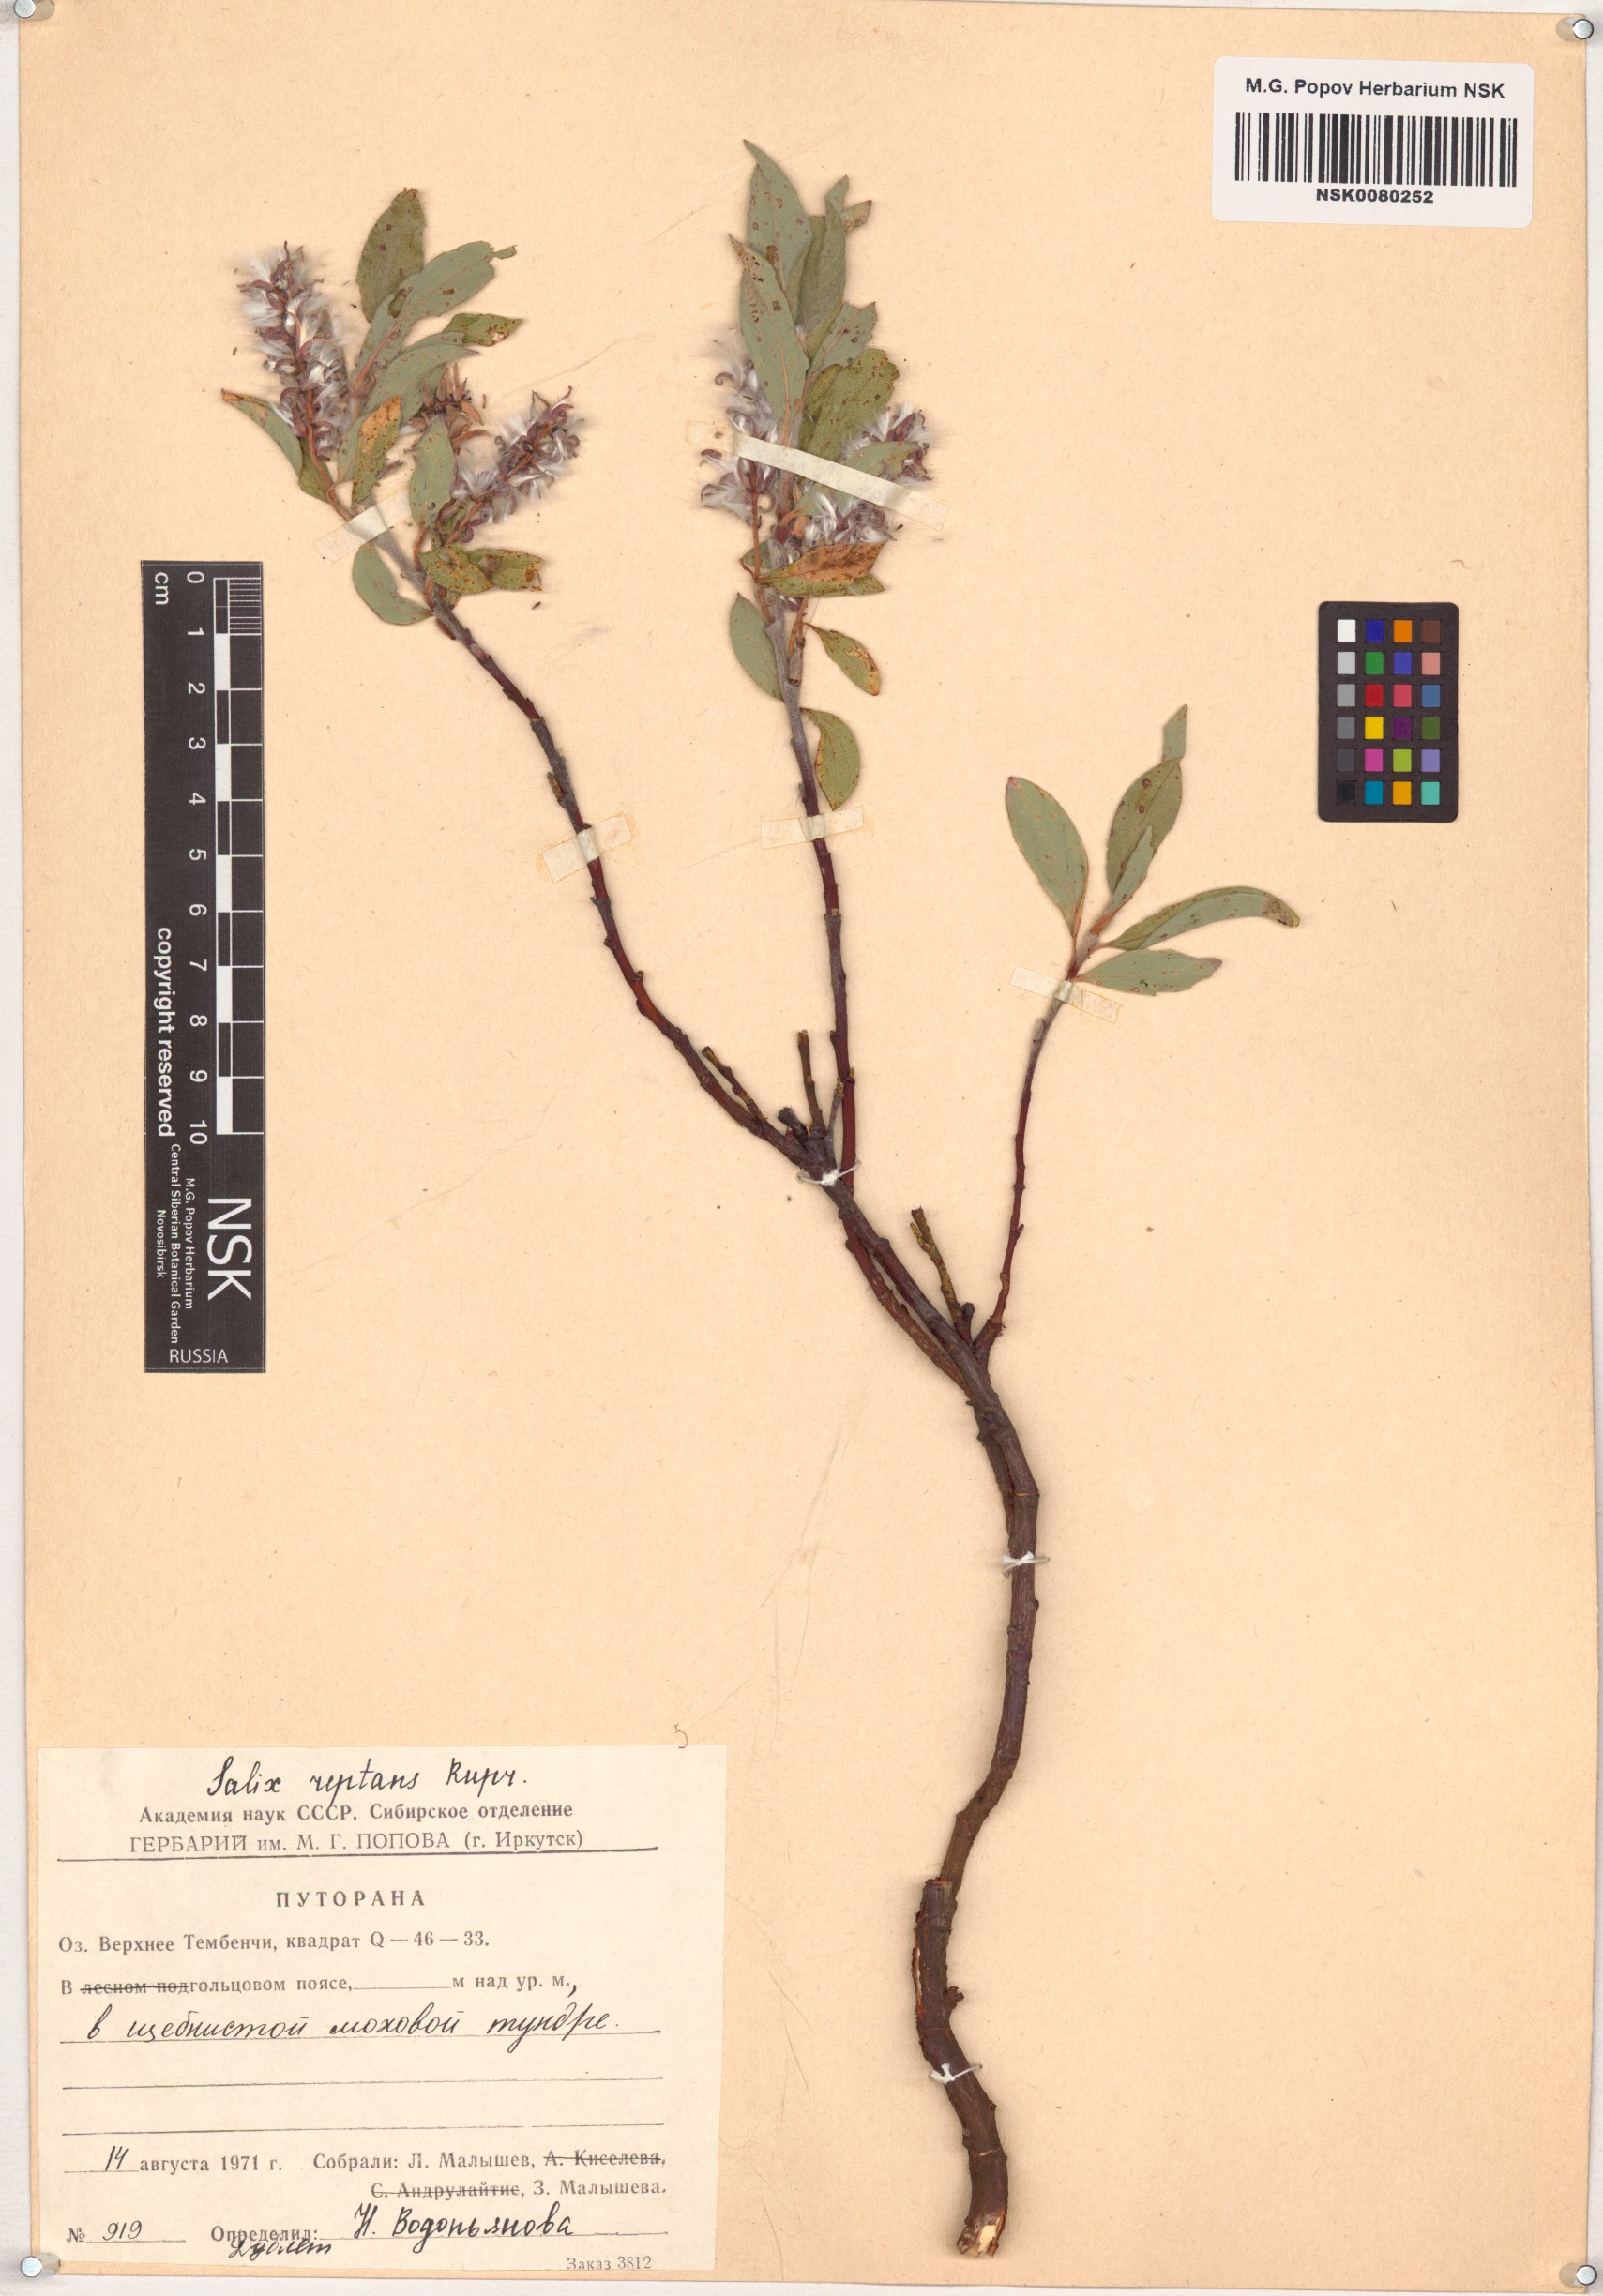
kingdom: Plantae
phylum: Tracheophyta
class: Magnoliopsida
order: Malpighiales
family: Salicaceae
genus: Salix
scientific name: Salix reptans
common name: Arctic creeping willow
